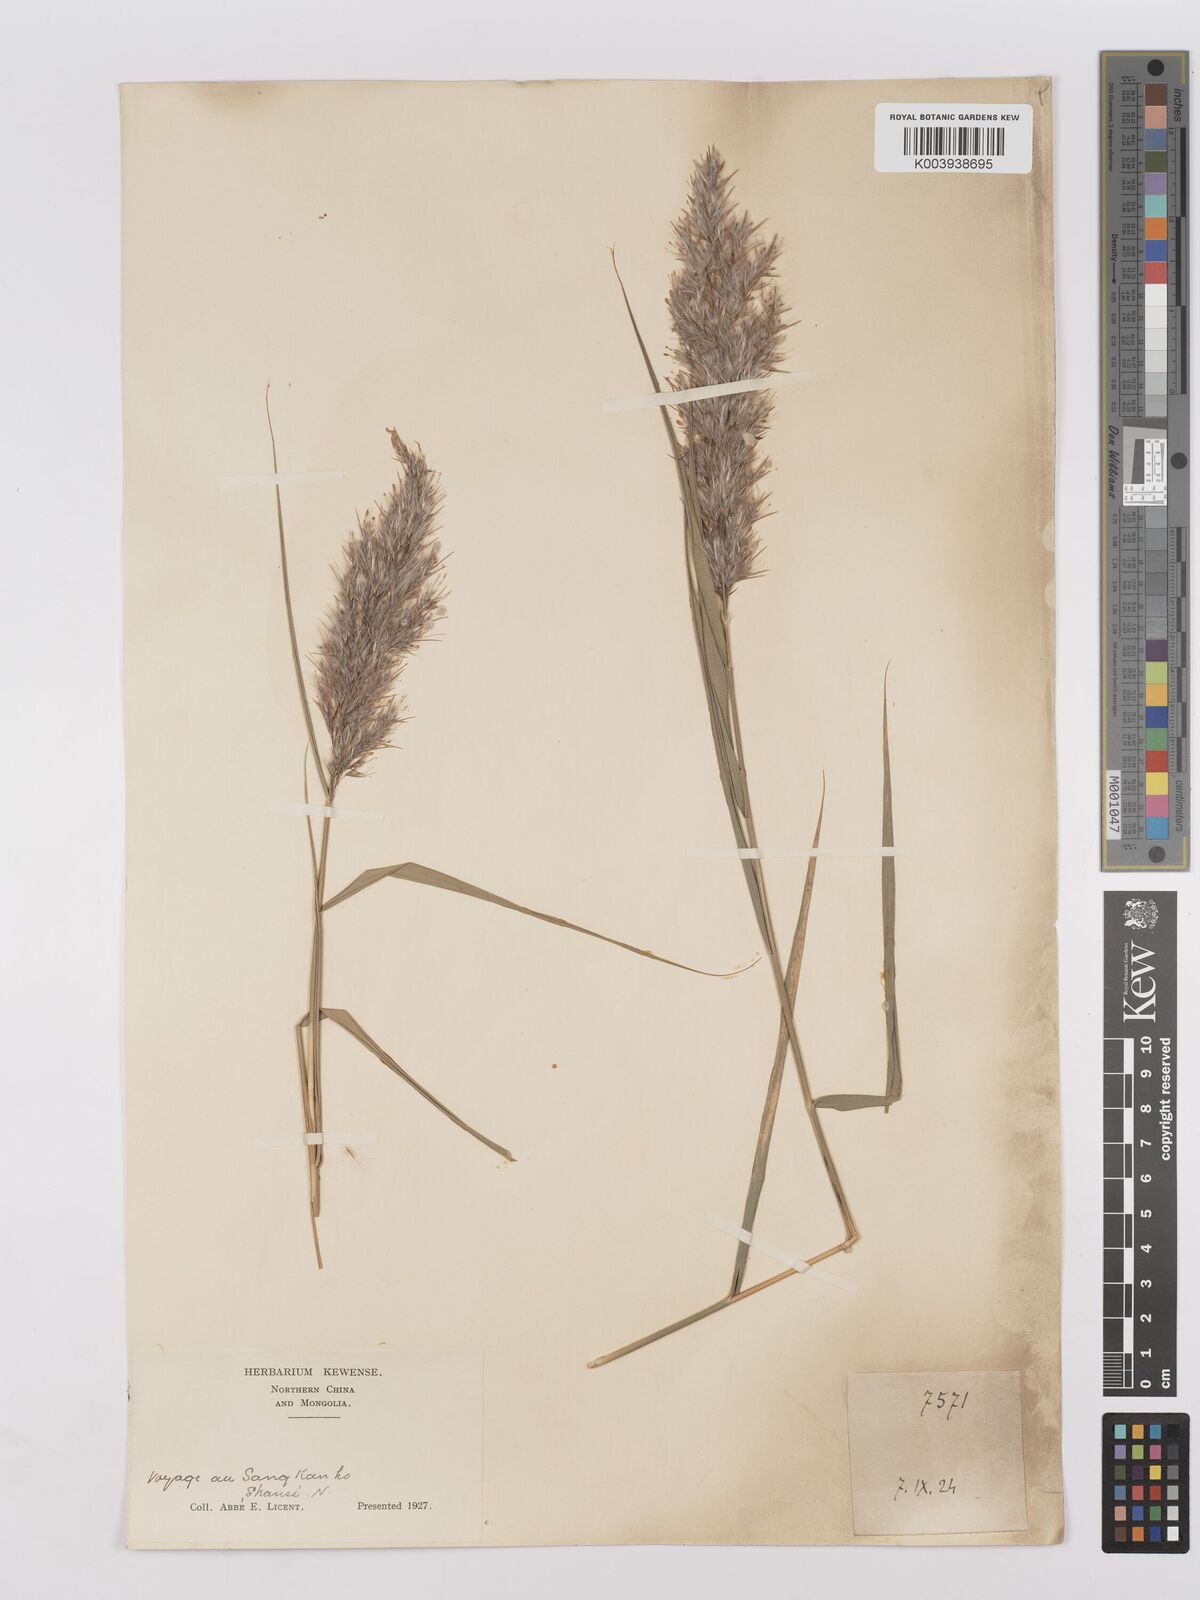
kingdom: Plantae
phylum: Tracheophyta
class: Liliopsida
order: Poales
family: Poaceae
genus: Phragmites
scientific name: Phragmites australis
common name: Common reed
